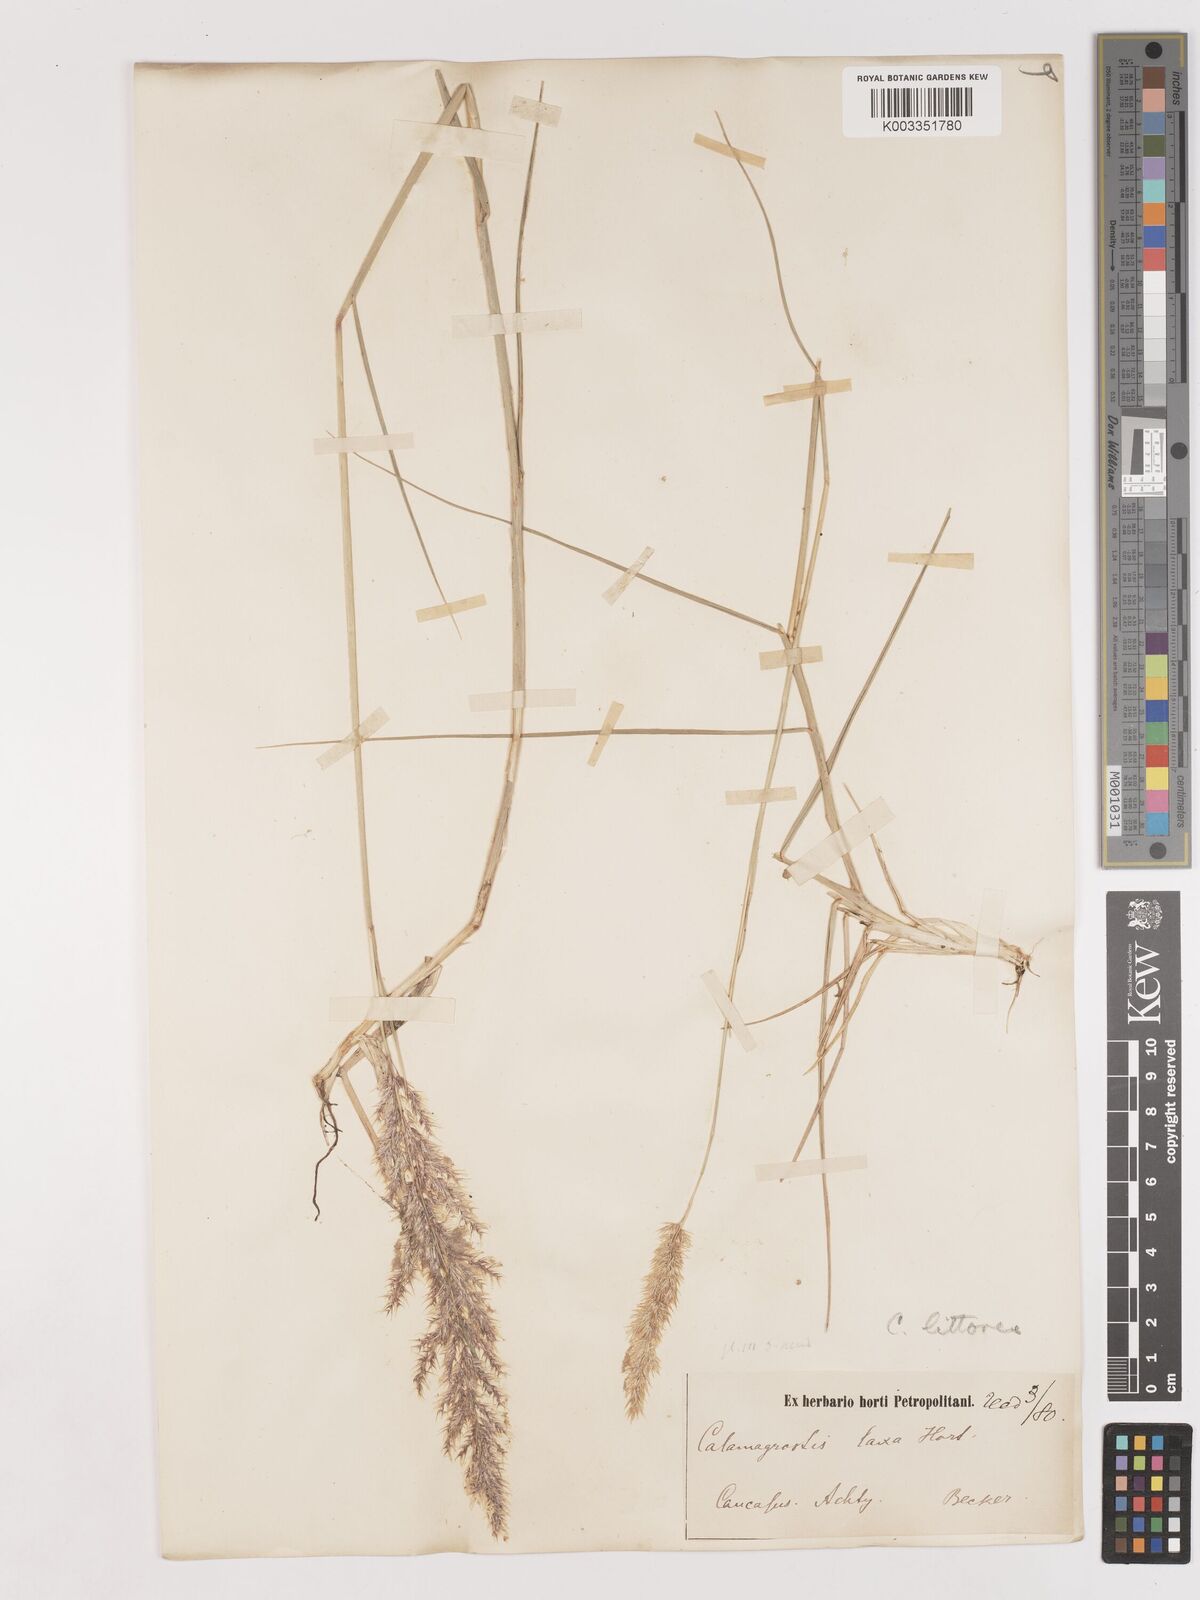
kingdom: Plantae
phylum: Tracheophyta
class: Liliopsida
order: Poales
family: Poaceae
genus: Calamagrostis
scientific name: Calamagrostis pseudophragmites
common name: Coastal small-reed
